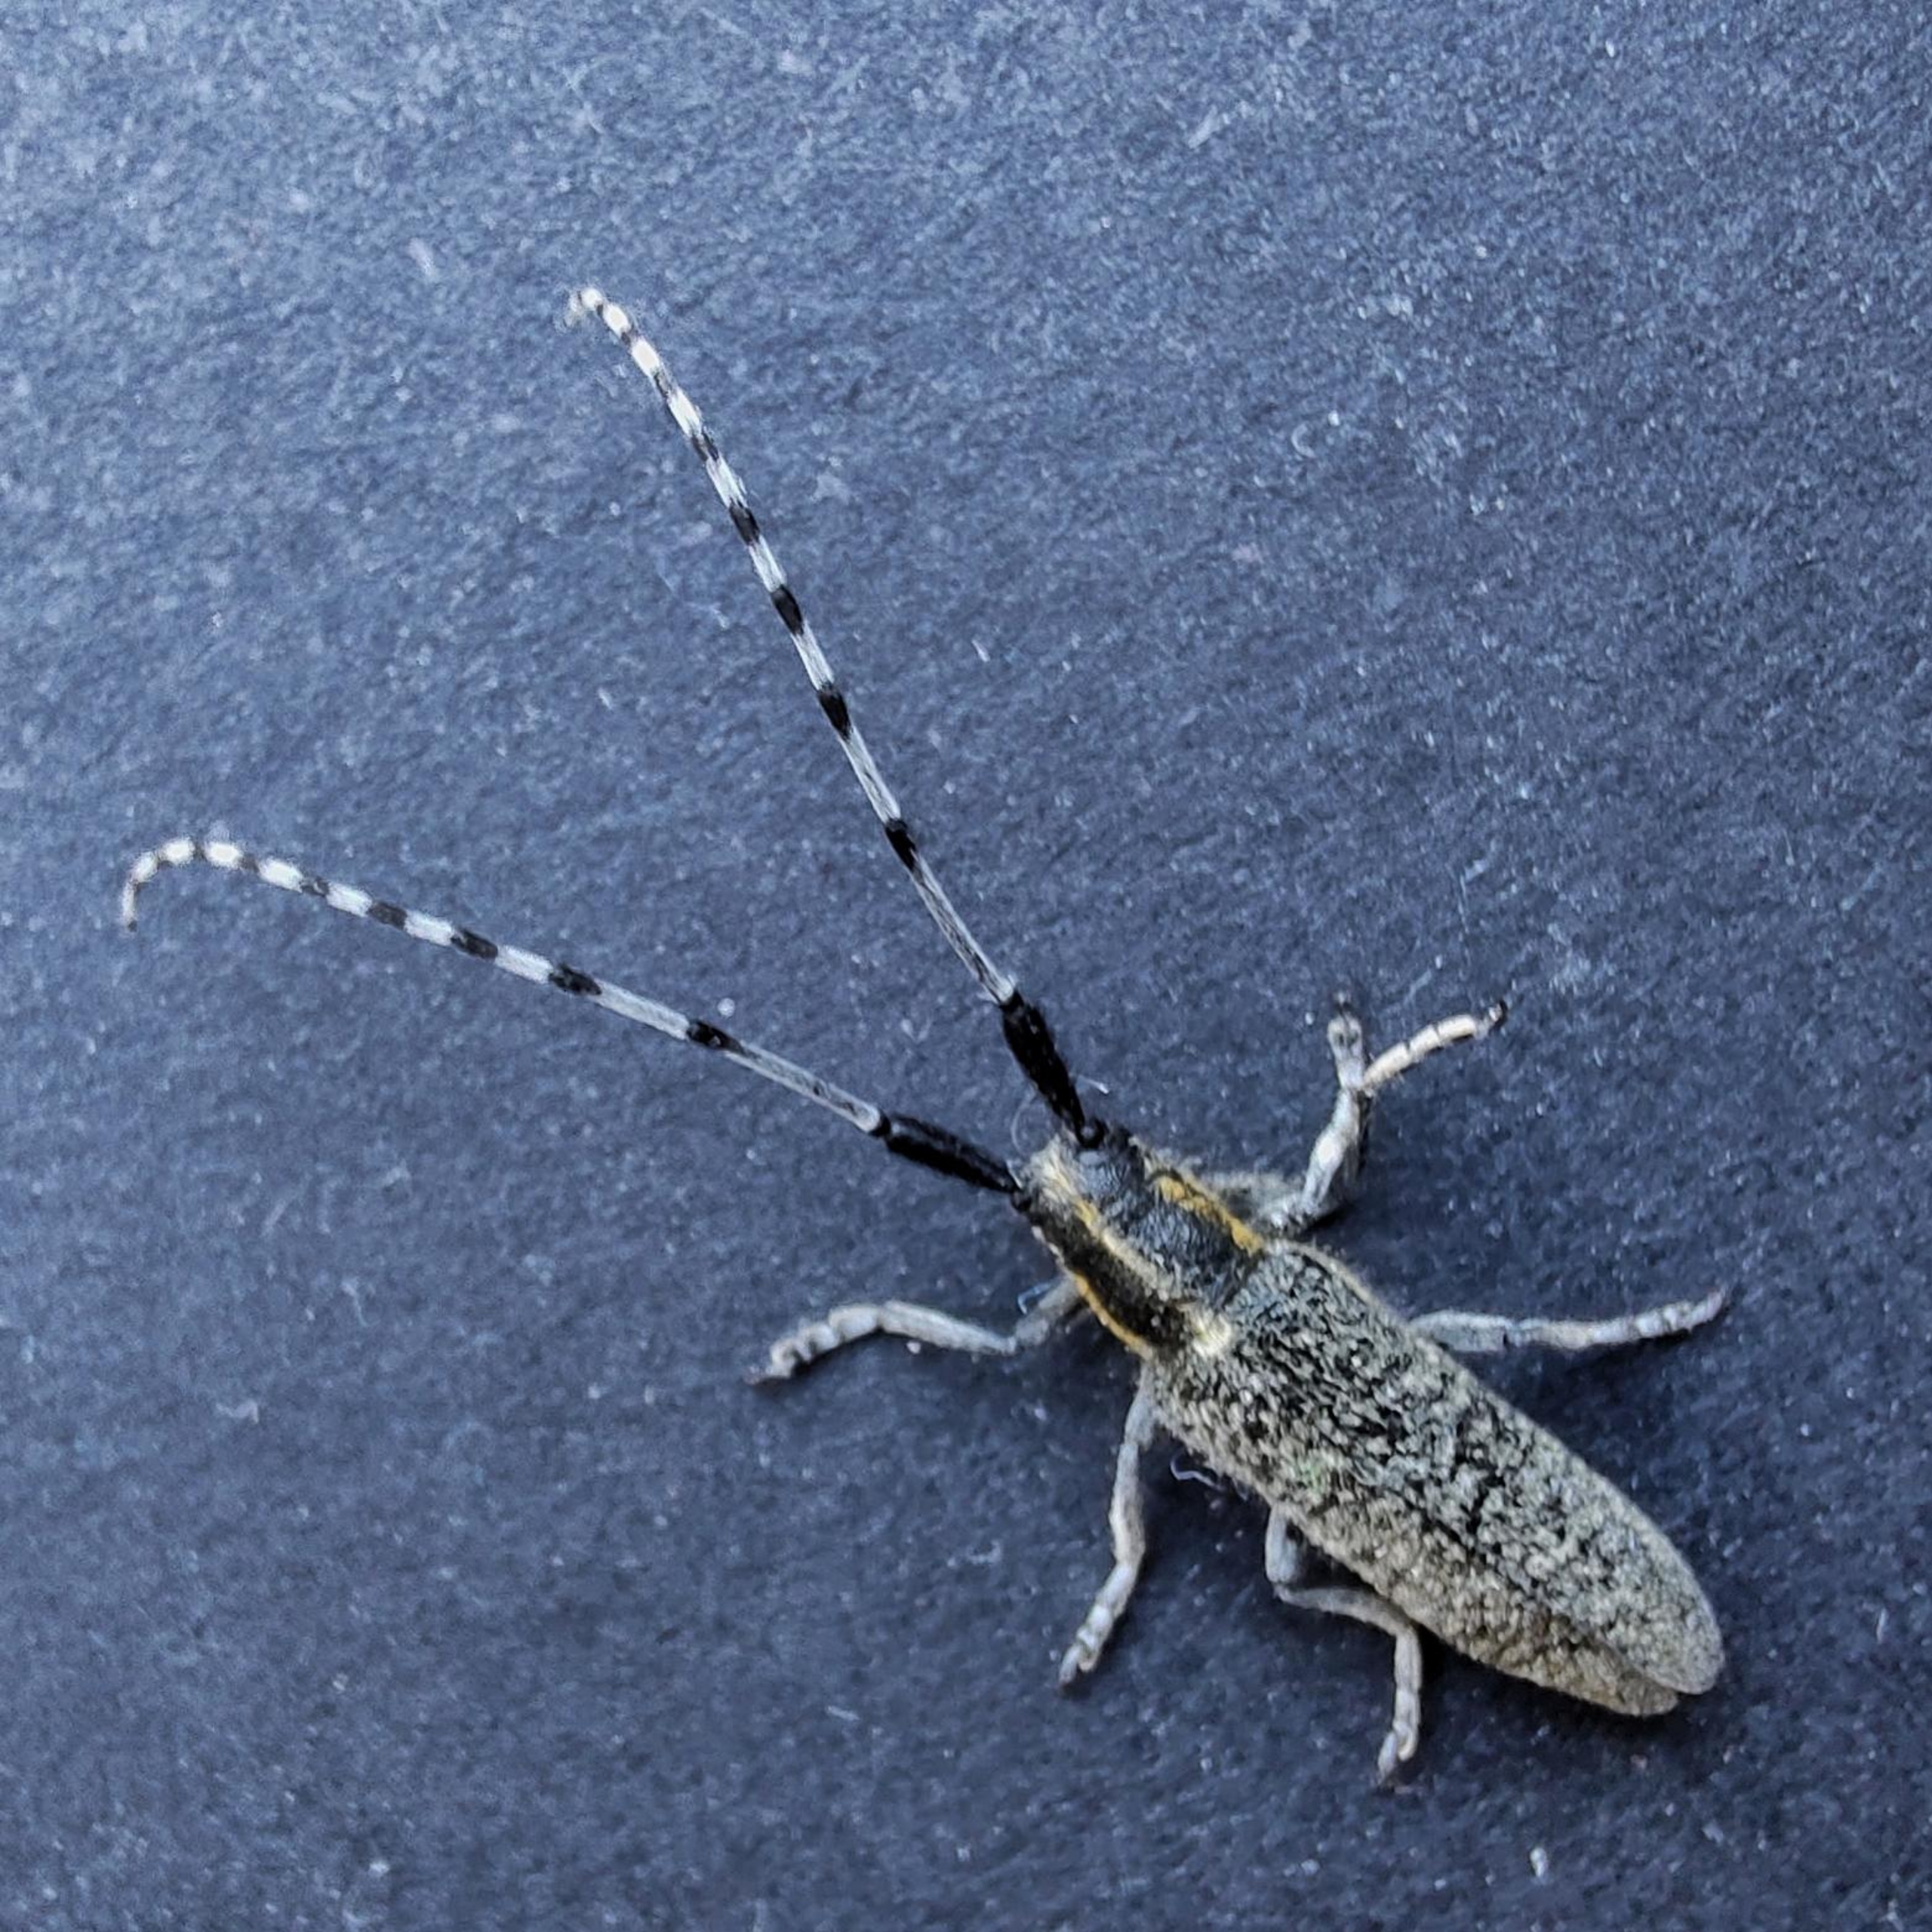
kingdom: Animalia
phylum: Arthropoda
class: Insecta
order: Coleoptera
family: Cerambycidae
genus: Agapanthia
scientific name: Agapanthia villosoviridescens
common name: Tidselbuk
